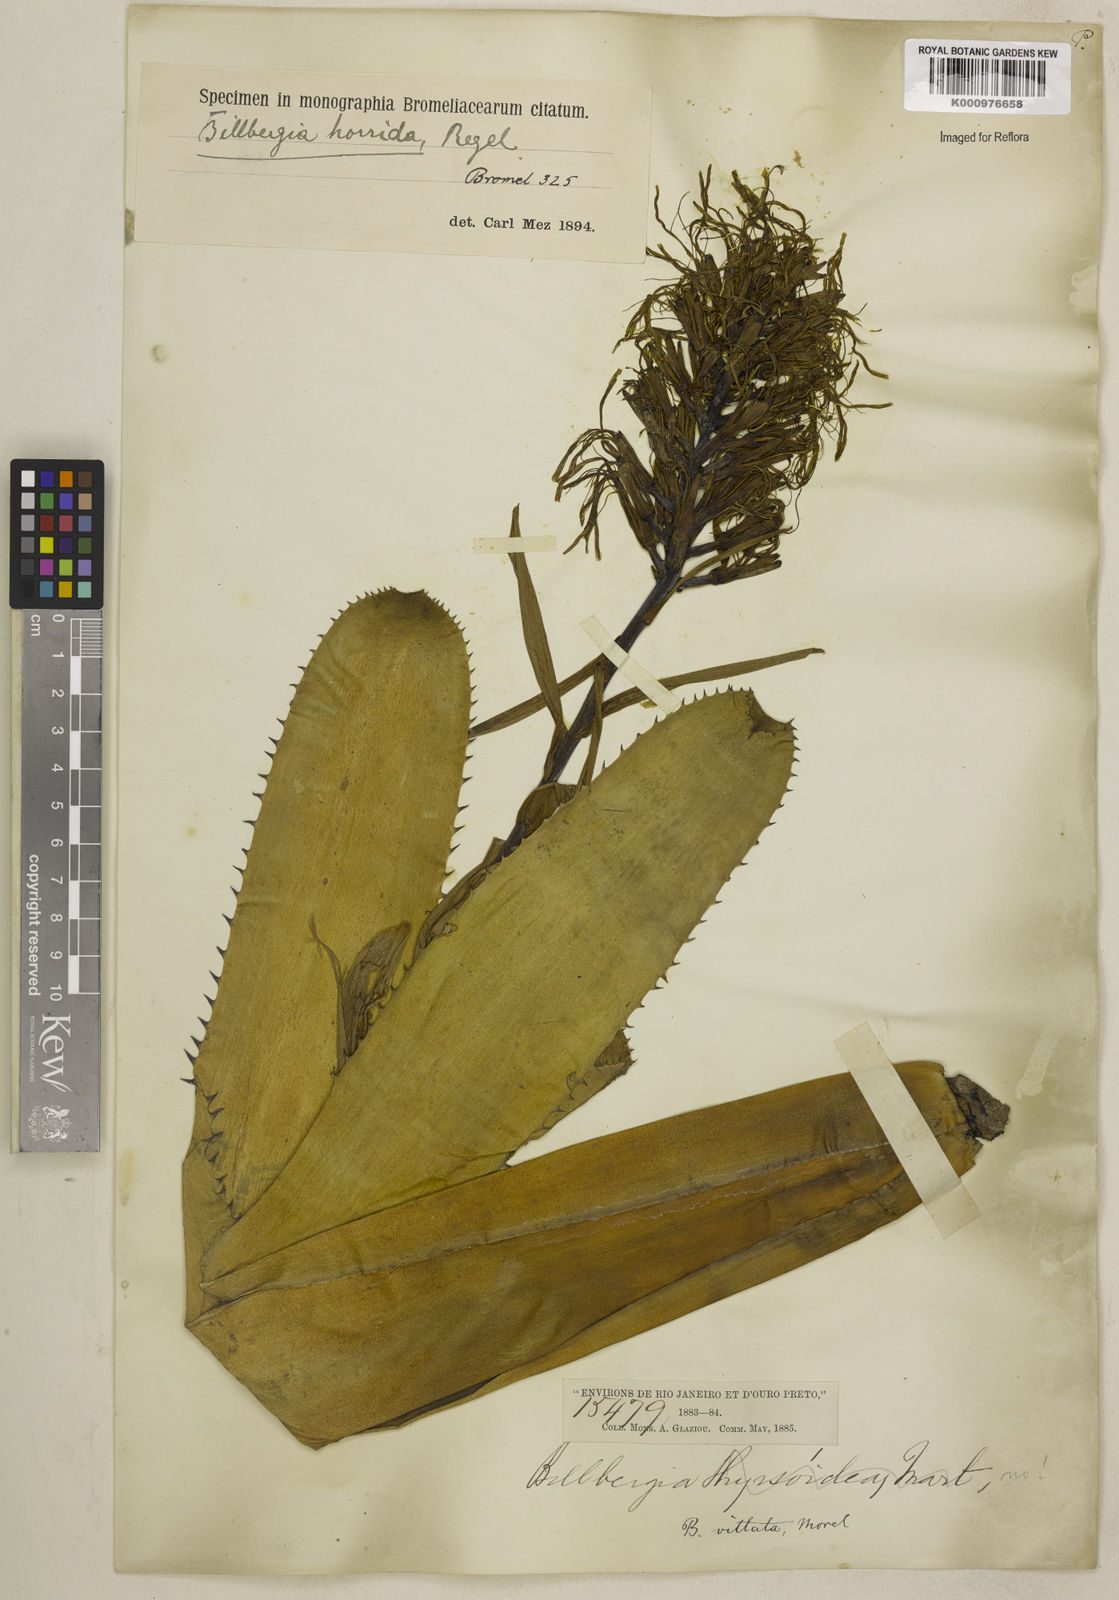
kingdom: Plantae
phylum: Tracheophyta
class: Liliopsida
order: Poales
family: Bromeliaceae
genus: Billbergia
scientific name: Billbergia horrida
